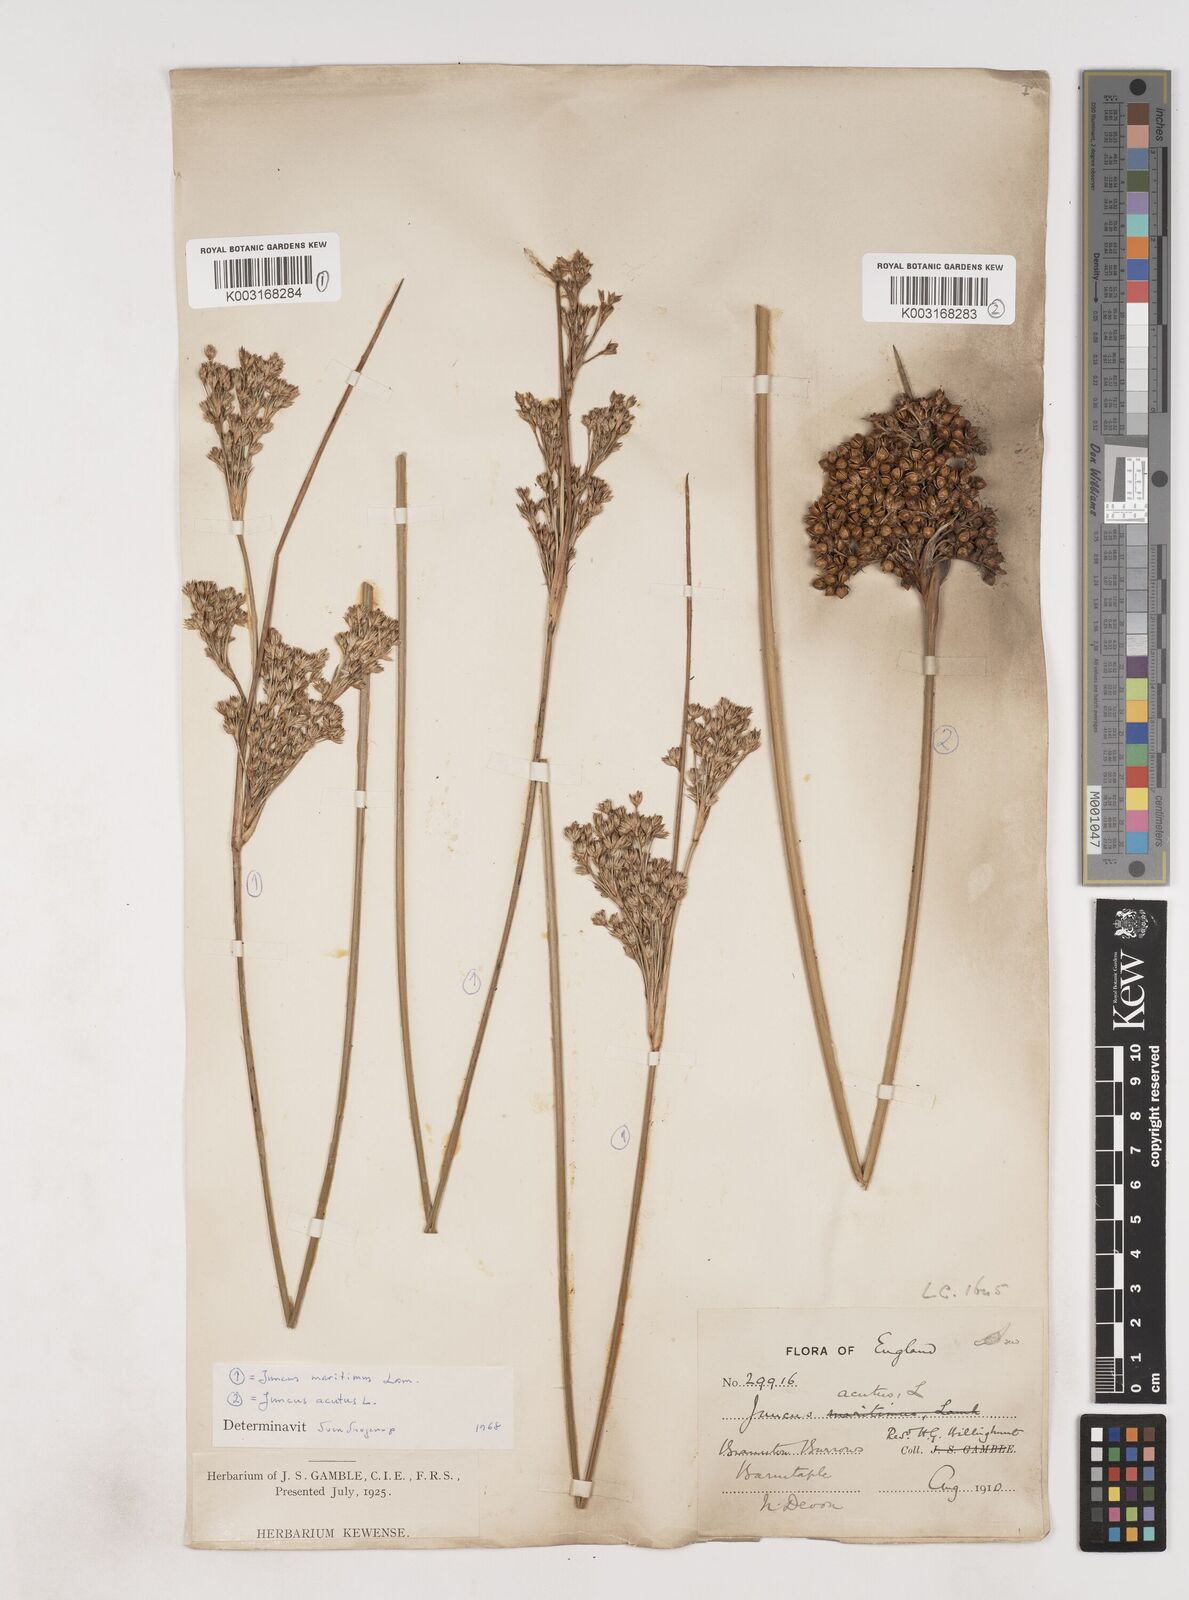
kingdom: Plantae
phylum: Tracheophyta
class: Liliopsida
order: Poales
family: Juncaceae
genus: Juncus
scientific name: Juncus acutus
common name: Sharp rush
